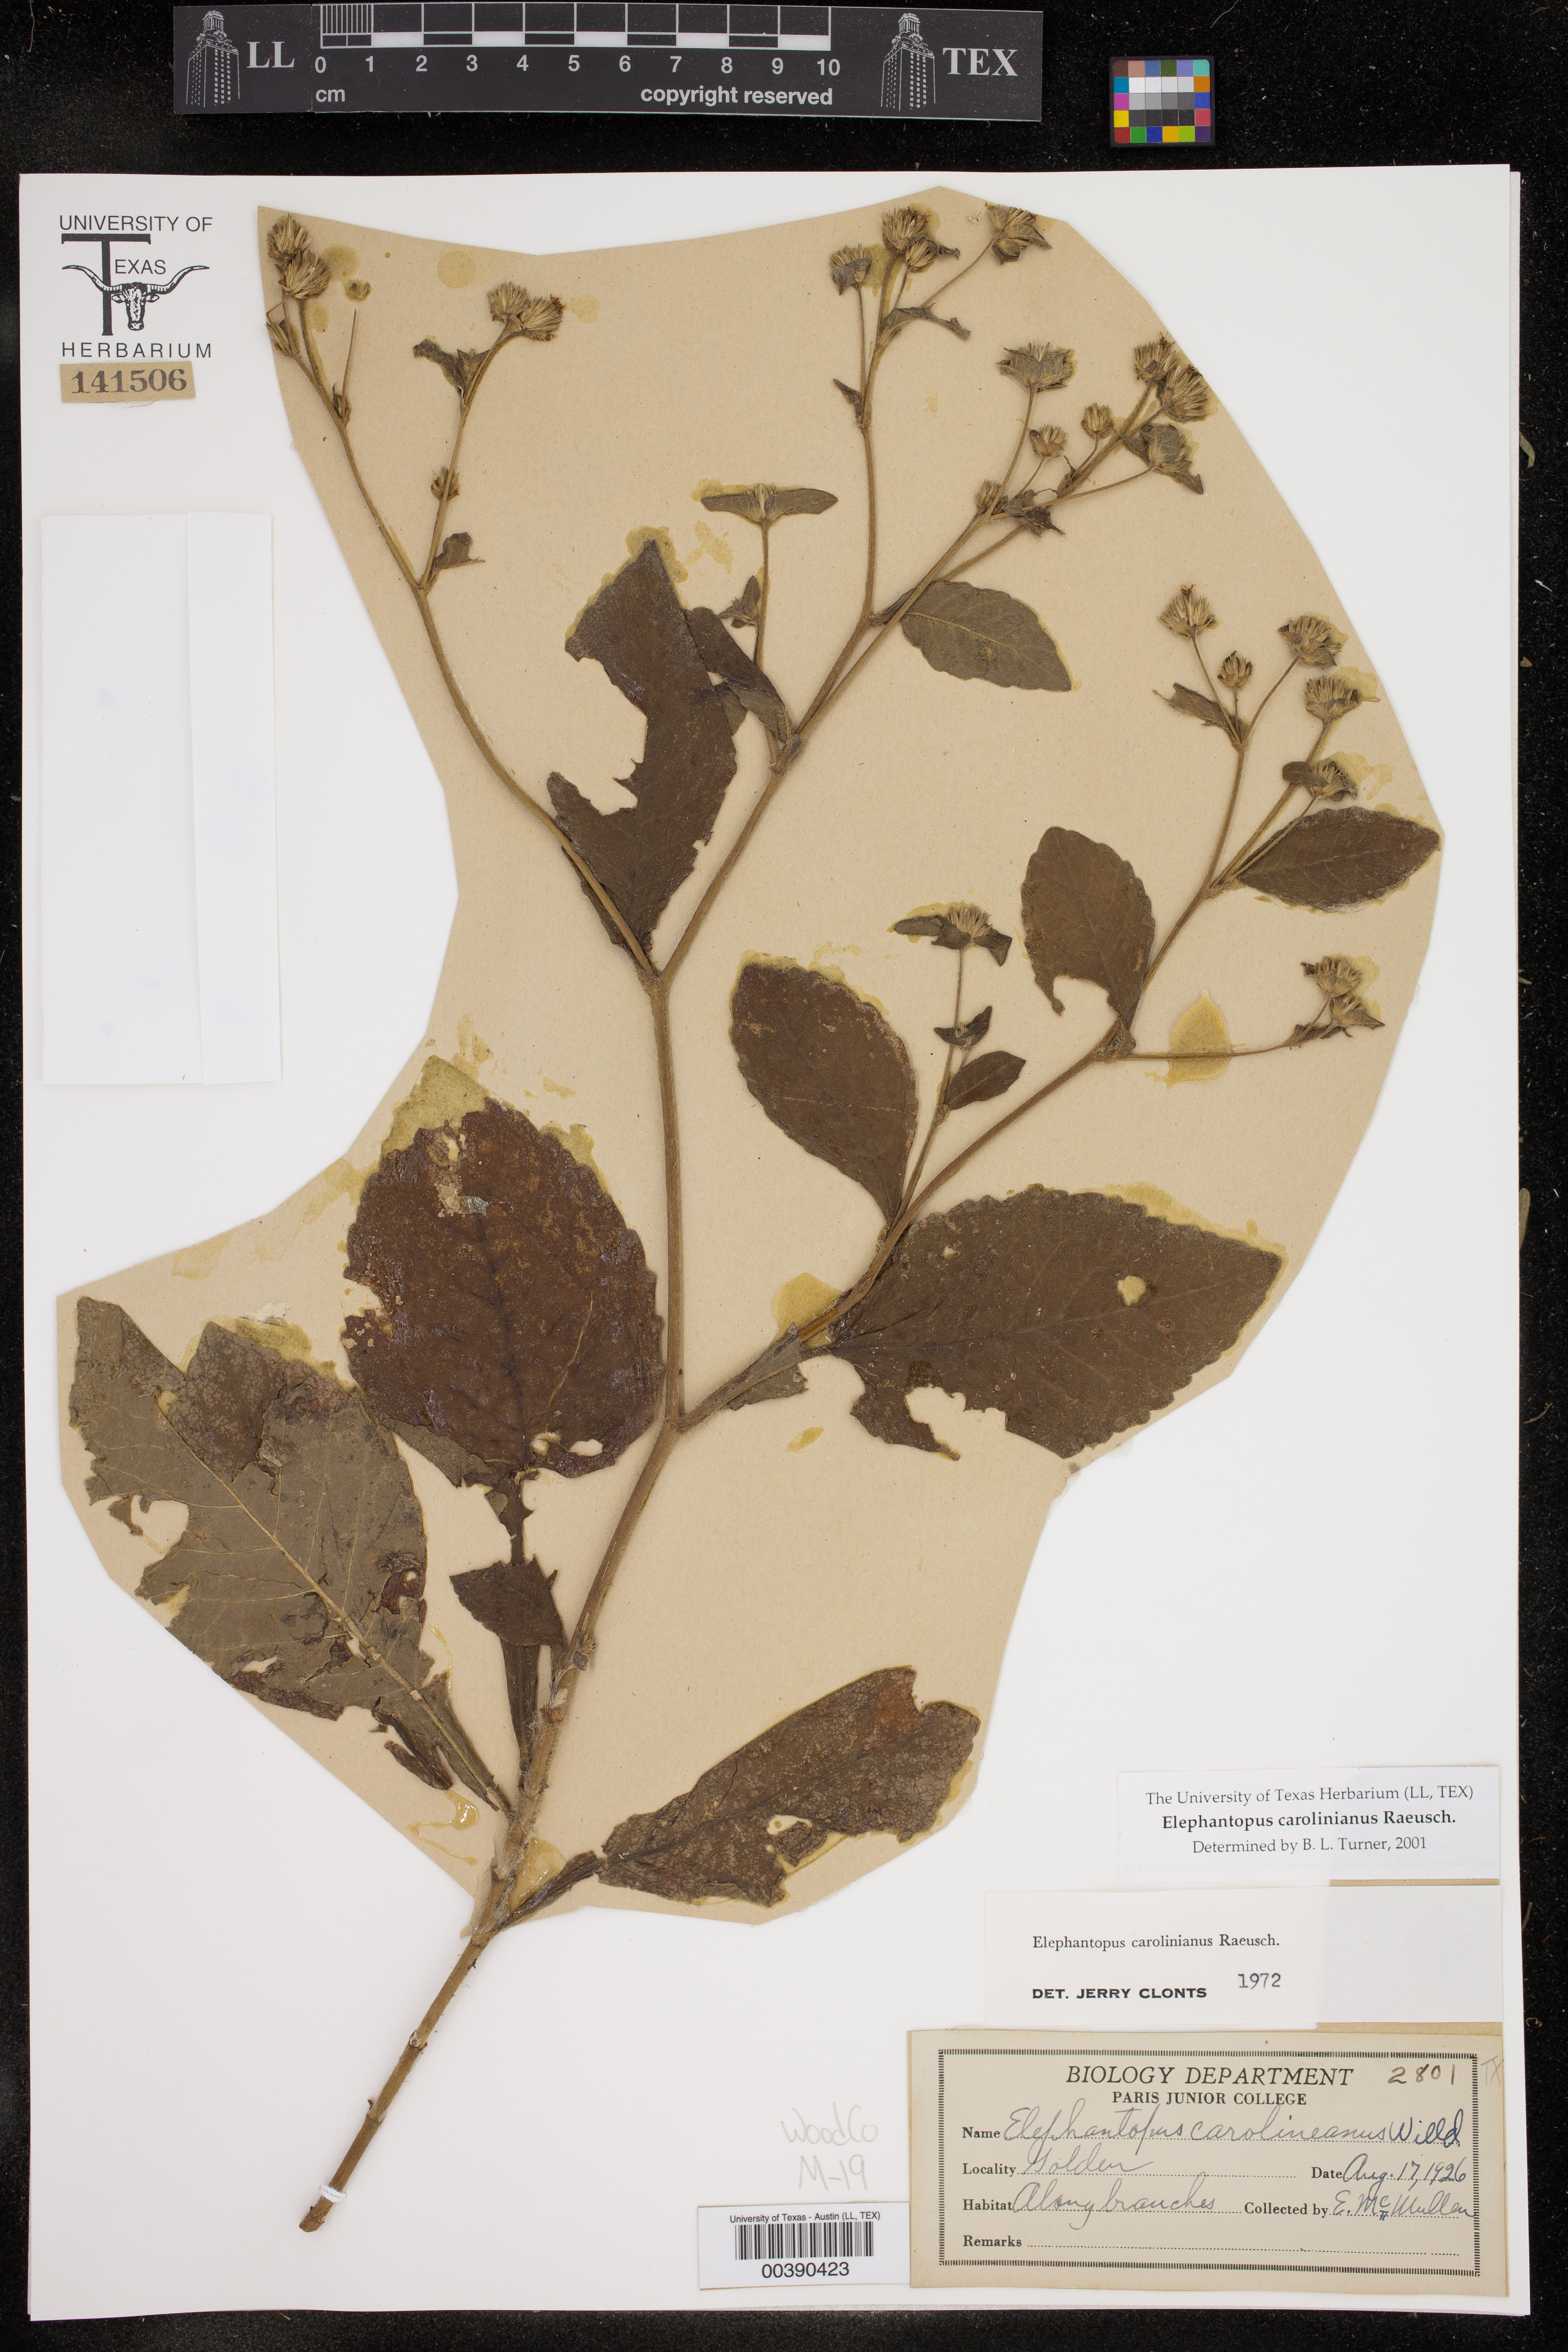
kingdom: Plantae
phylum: Tracheophyta
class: Magnoliopsida
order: Asterales
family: Asteraceae
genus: Elephantopus
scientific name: Elephantopus carolinianus
